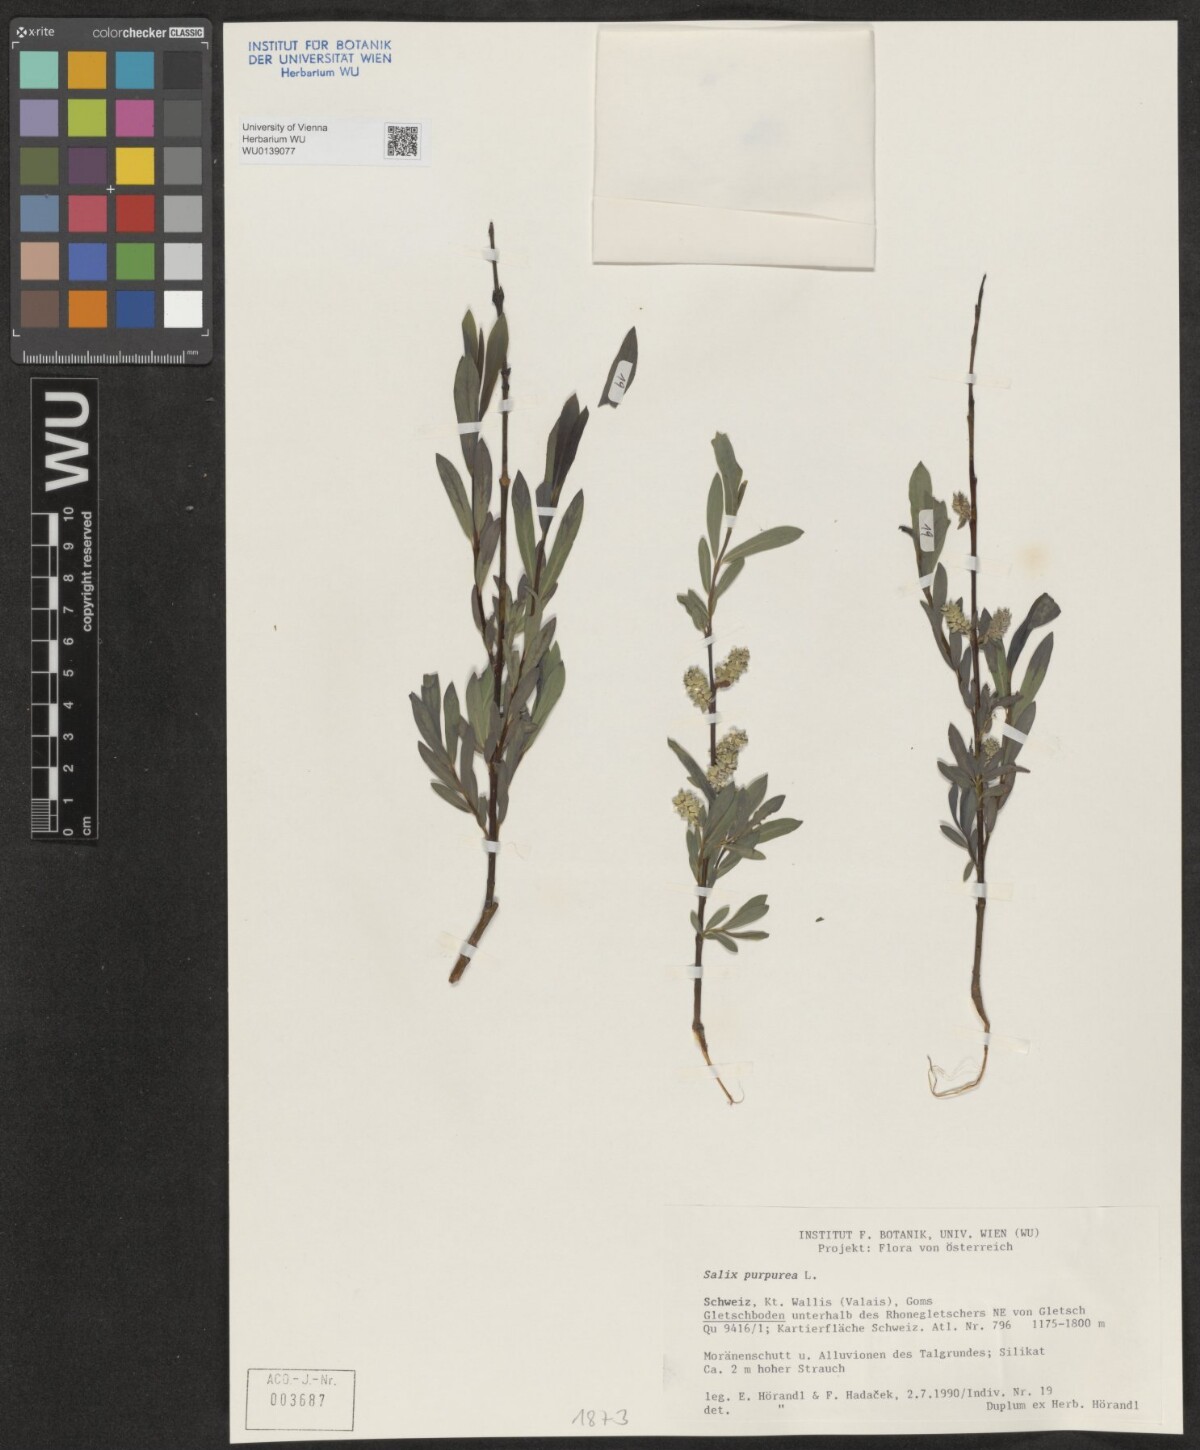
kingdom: Plantae
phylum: Tracheophyta
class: Magnoliopsida
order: Malpighiales
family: Salicaceae
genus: Salix
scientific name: Salix purpurea
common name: Purple willow
